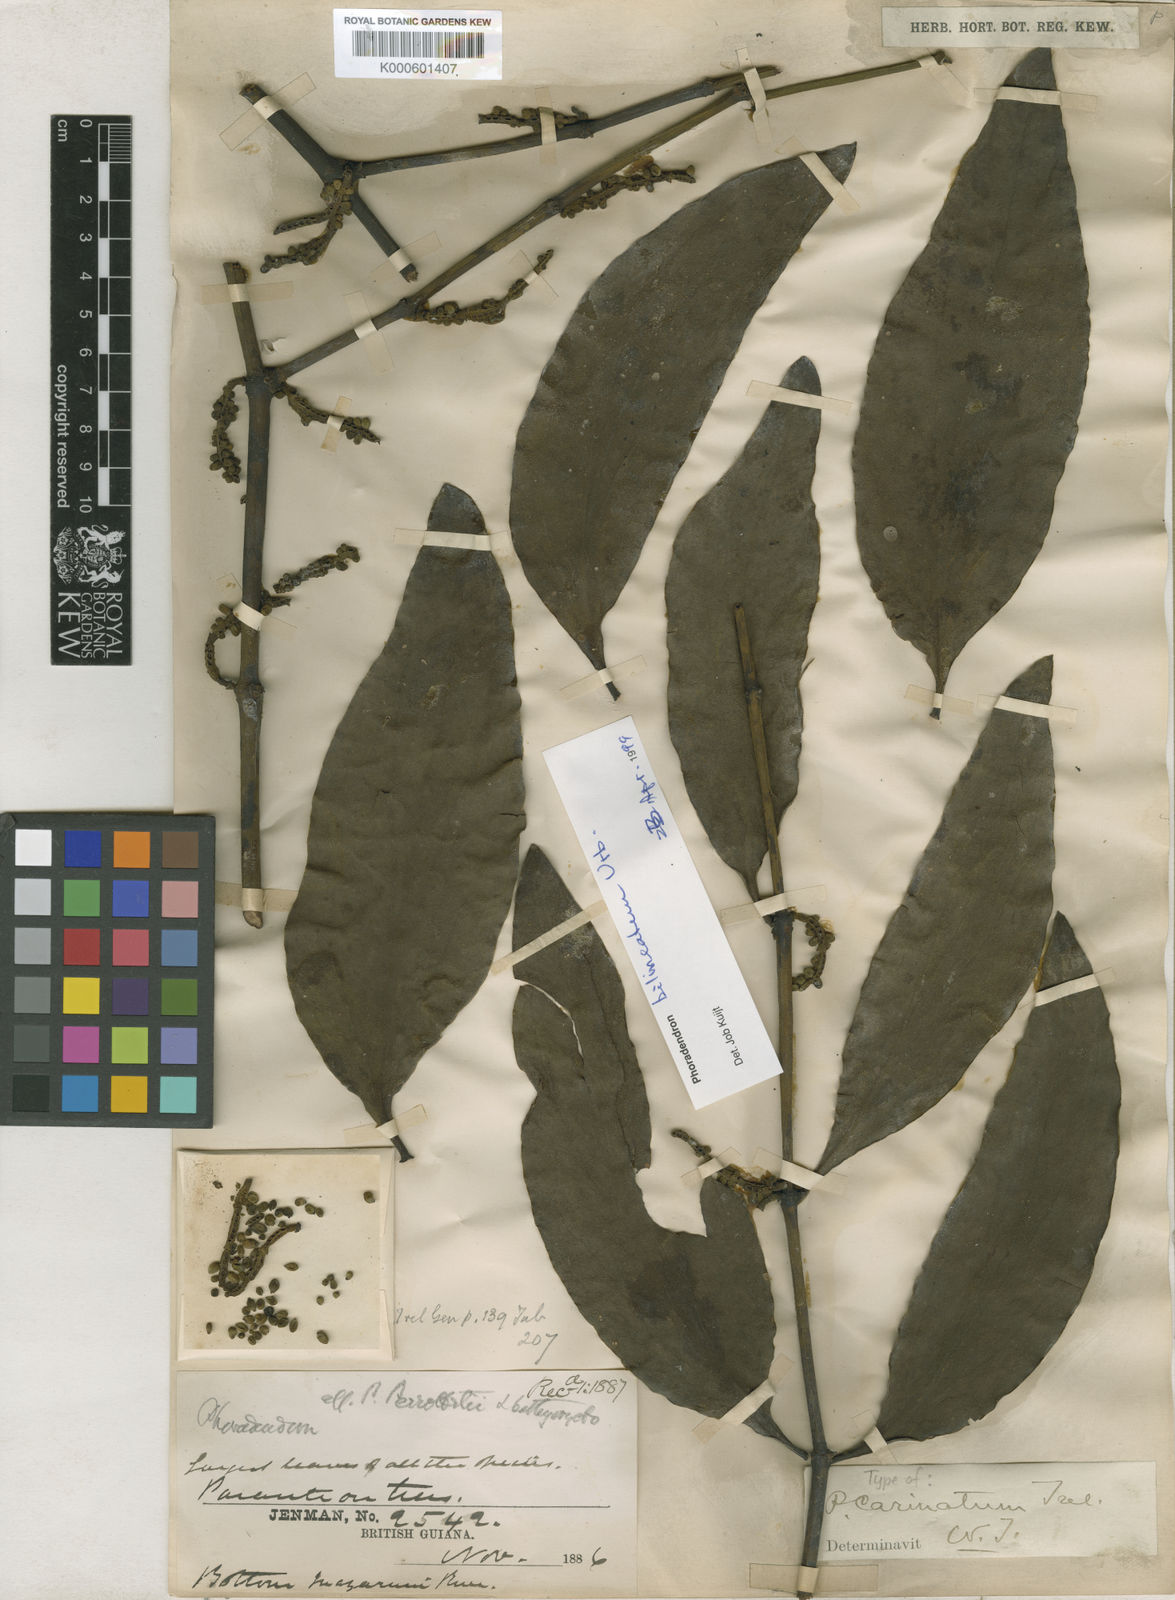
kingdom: Plantae
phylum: Tracheophyta
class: Magnoliopsida
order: Santalales
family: Viscaceae
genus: Phoradendron
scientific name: Phoradendron bilineatum
